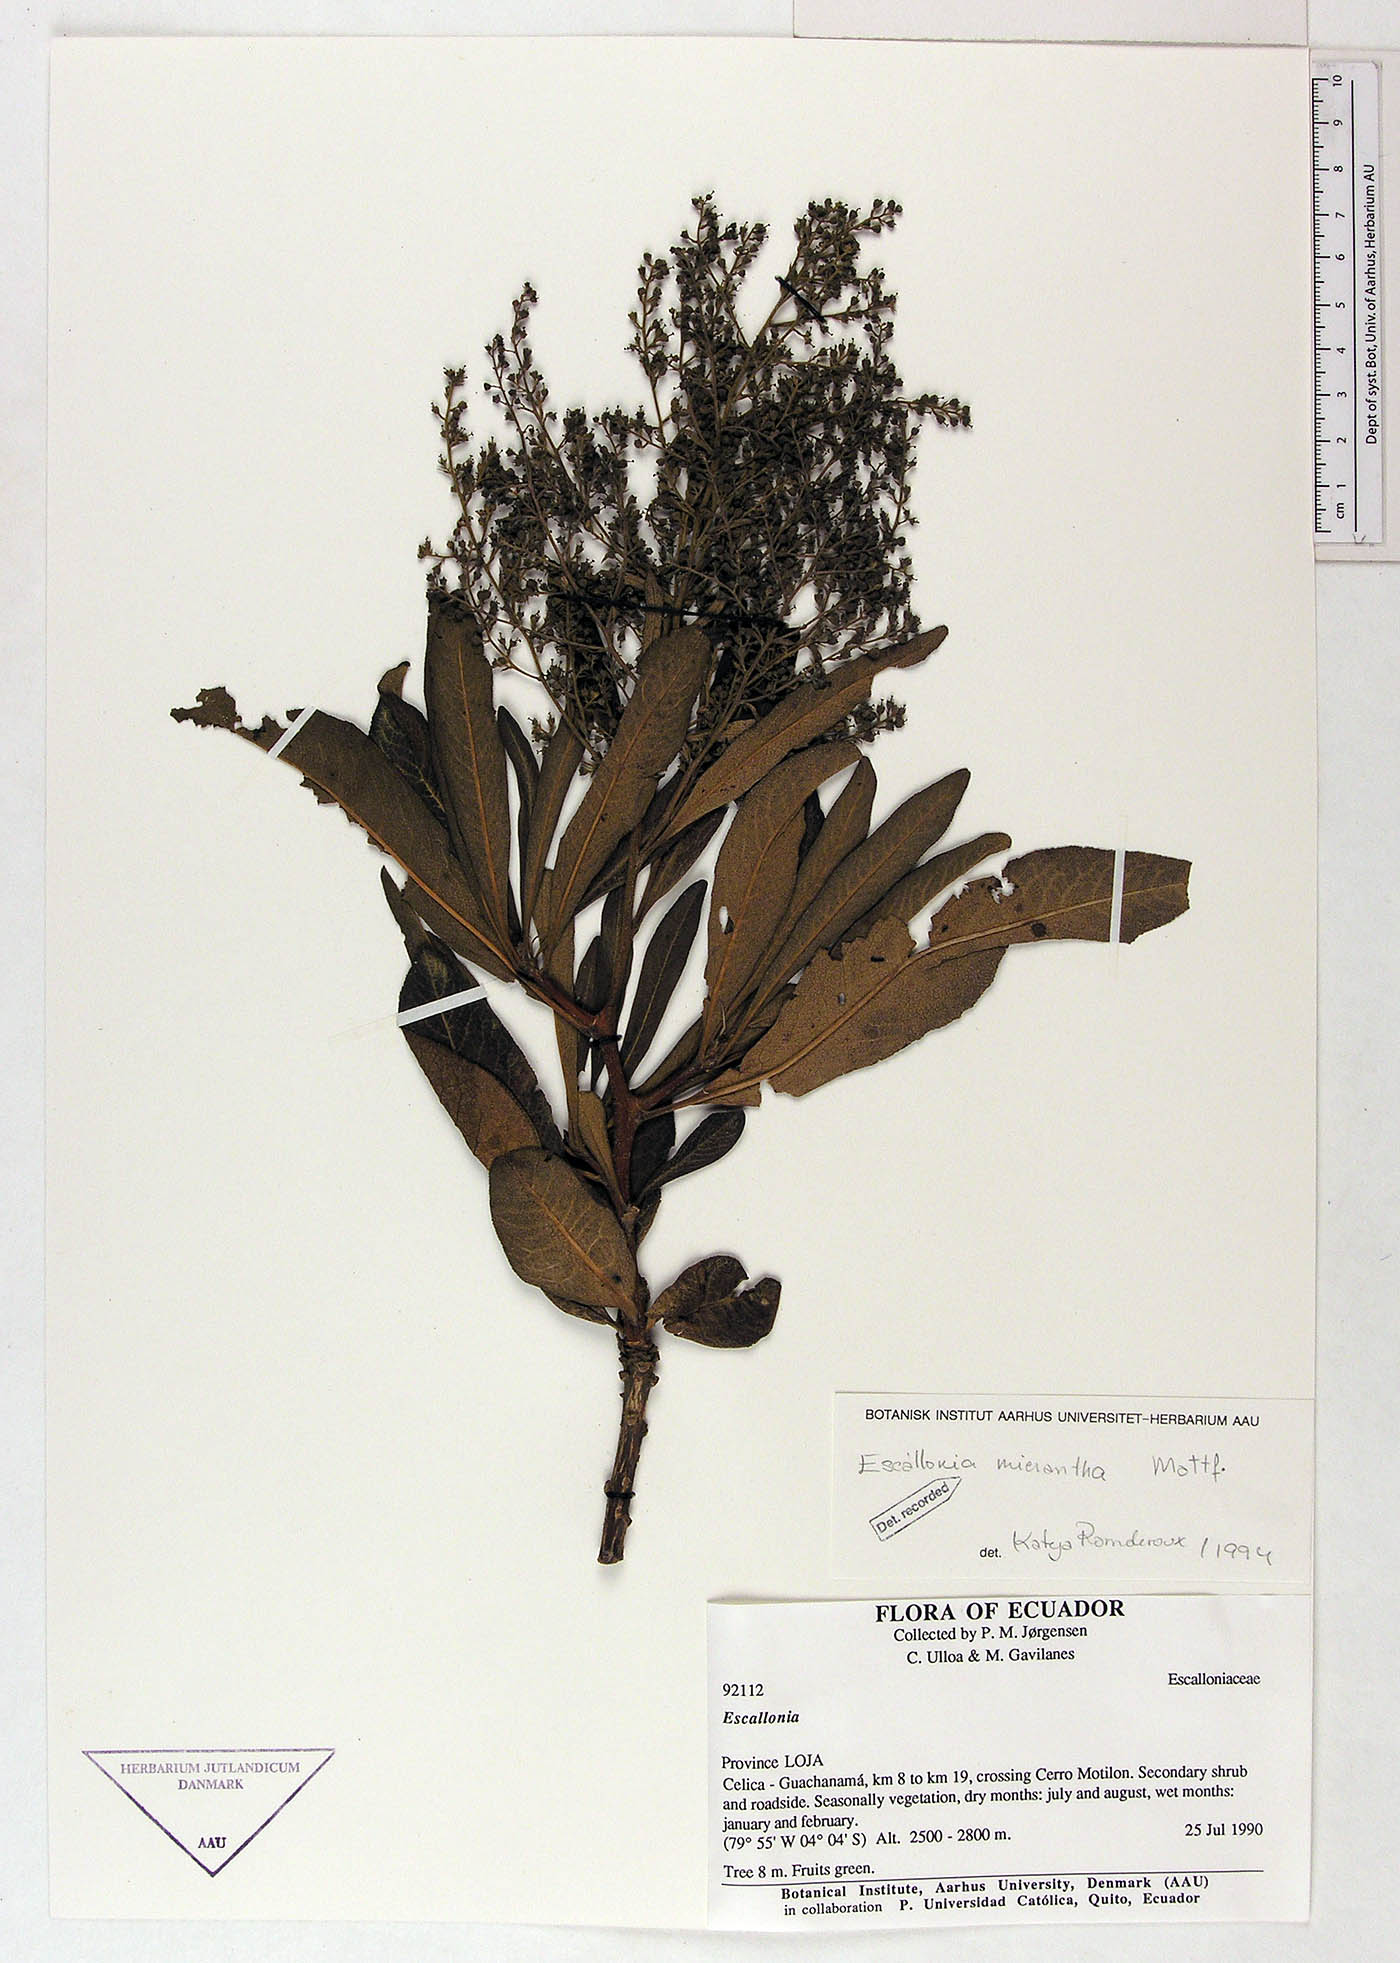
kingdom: Plantae
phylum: Tracheophyta
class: Magnoliopsida
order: Escalloniales
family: Escalloniaceae
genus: Escallonia
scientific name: Escallonia micrantha
